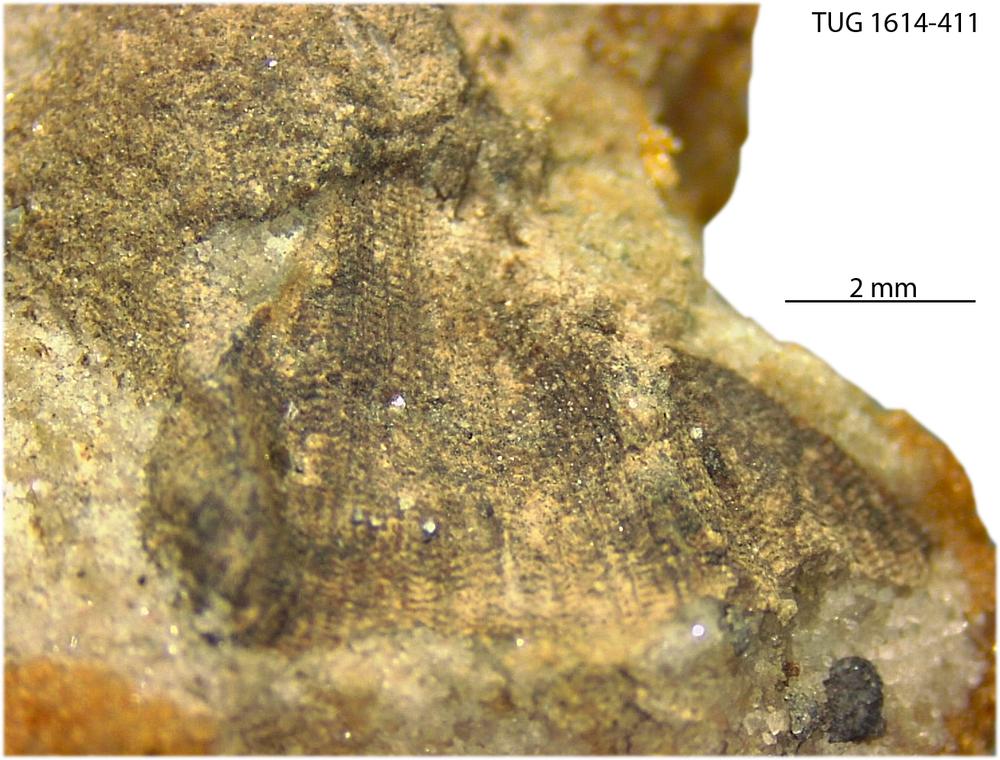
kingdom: Animalia
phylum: Mollusca
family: Scenellidae
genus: Scenella
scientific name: Scenella
